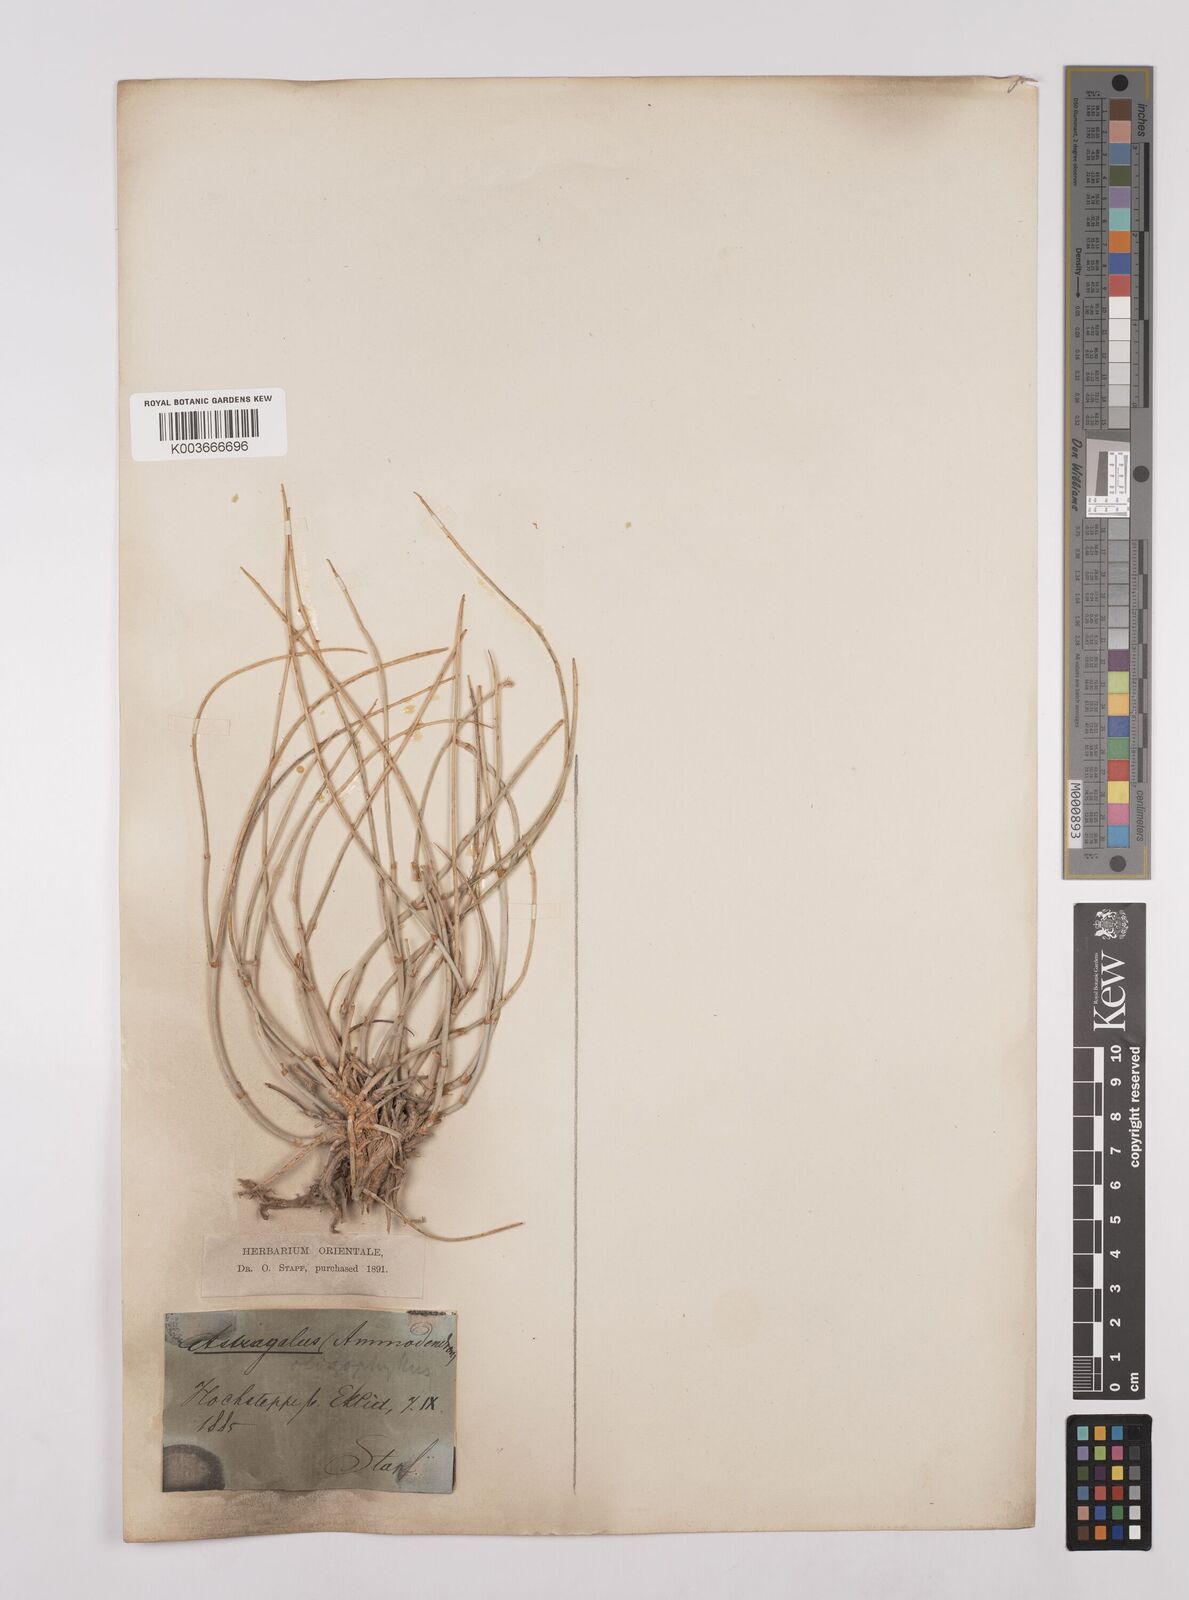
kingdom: Plantae
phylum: Tracheophyta
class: Magnoliopsida
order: Fabales
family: Fabaceae
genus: Astragalus
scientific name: Astragalus
